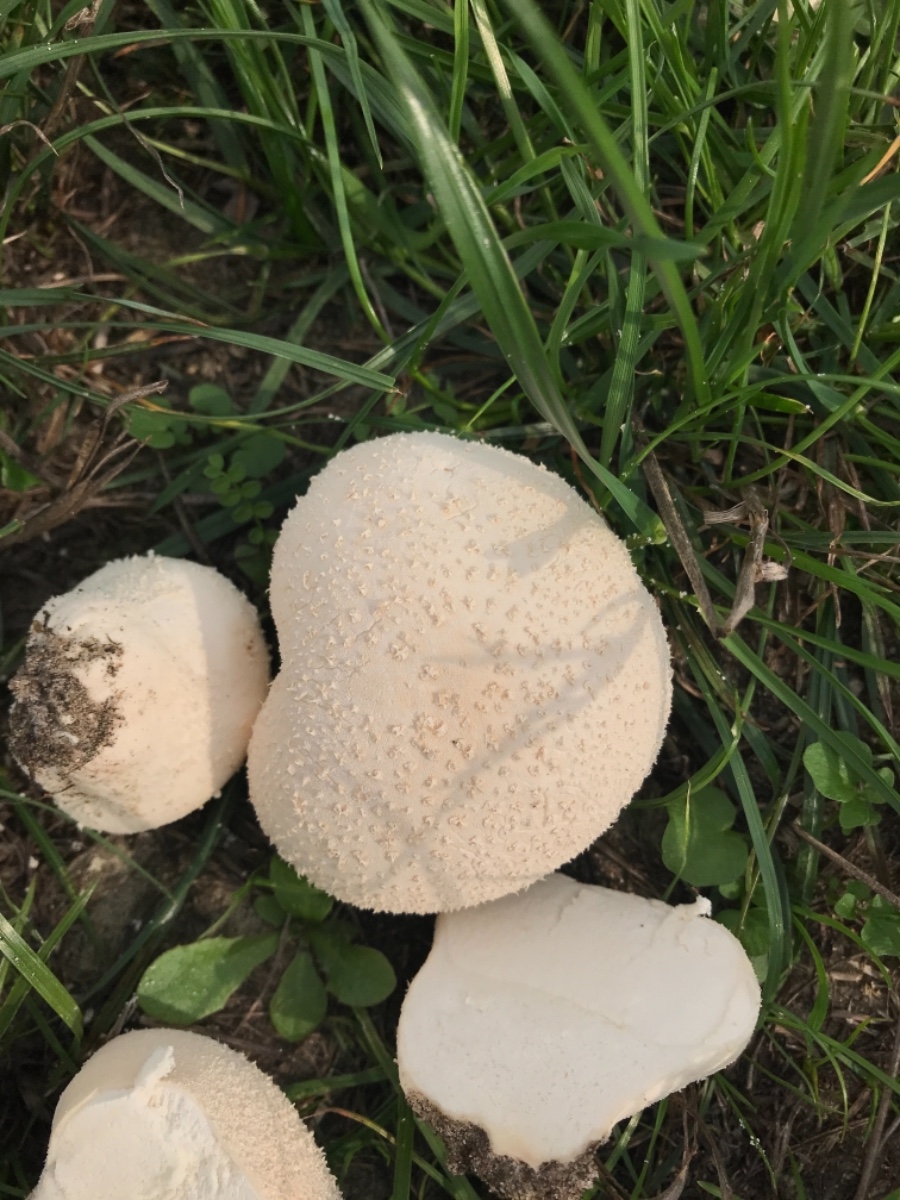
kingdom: Fungi
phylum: Basidiomycota
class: Agaricomycetes
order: Agaricales
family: Lycoperdaceae
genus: Lycoperdon
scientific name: Lycoperdon pratense
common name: flad støvbold
